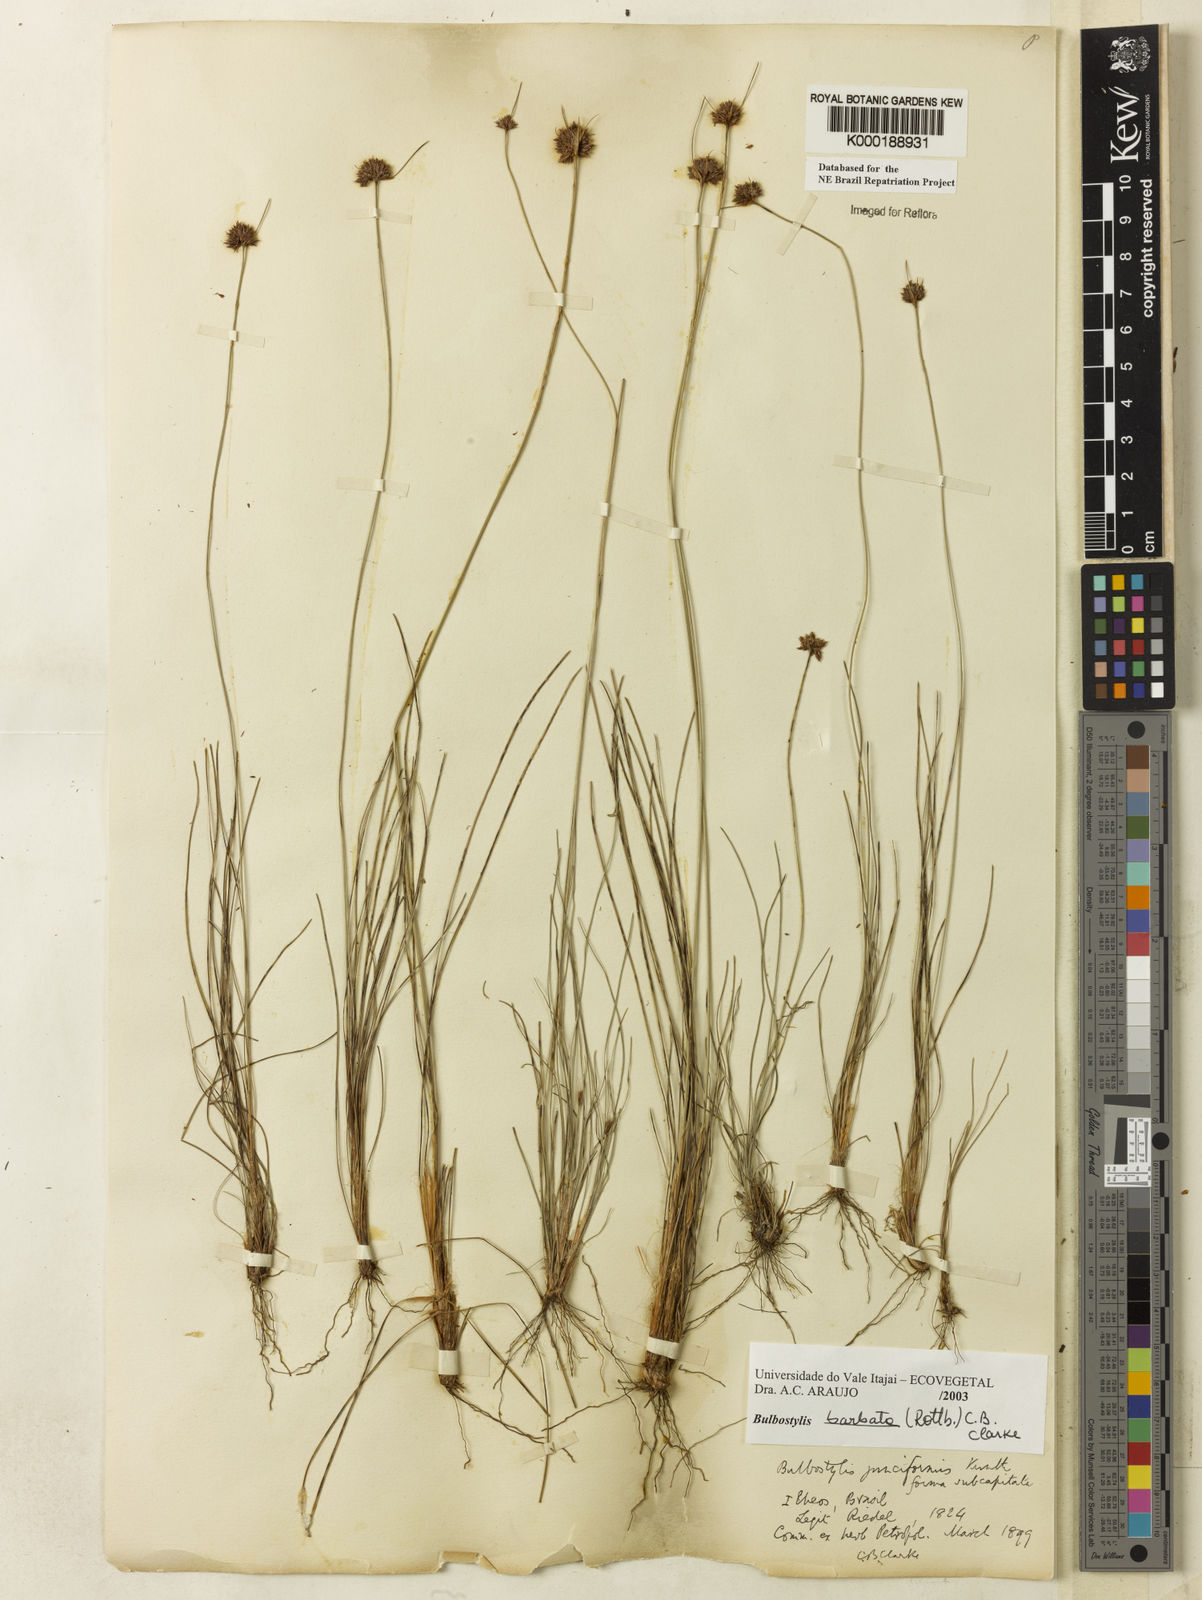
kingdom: Plantae
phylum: Tracheophyta
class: Liliopsida
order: Poales
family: Cyperaceae
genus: Bulbostylis
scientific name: Bulbostylis barbata
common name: Watergrass
